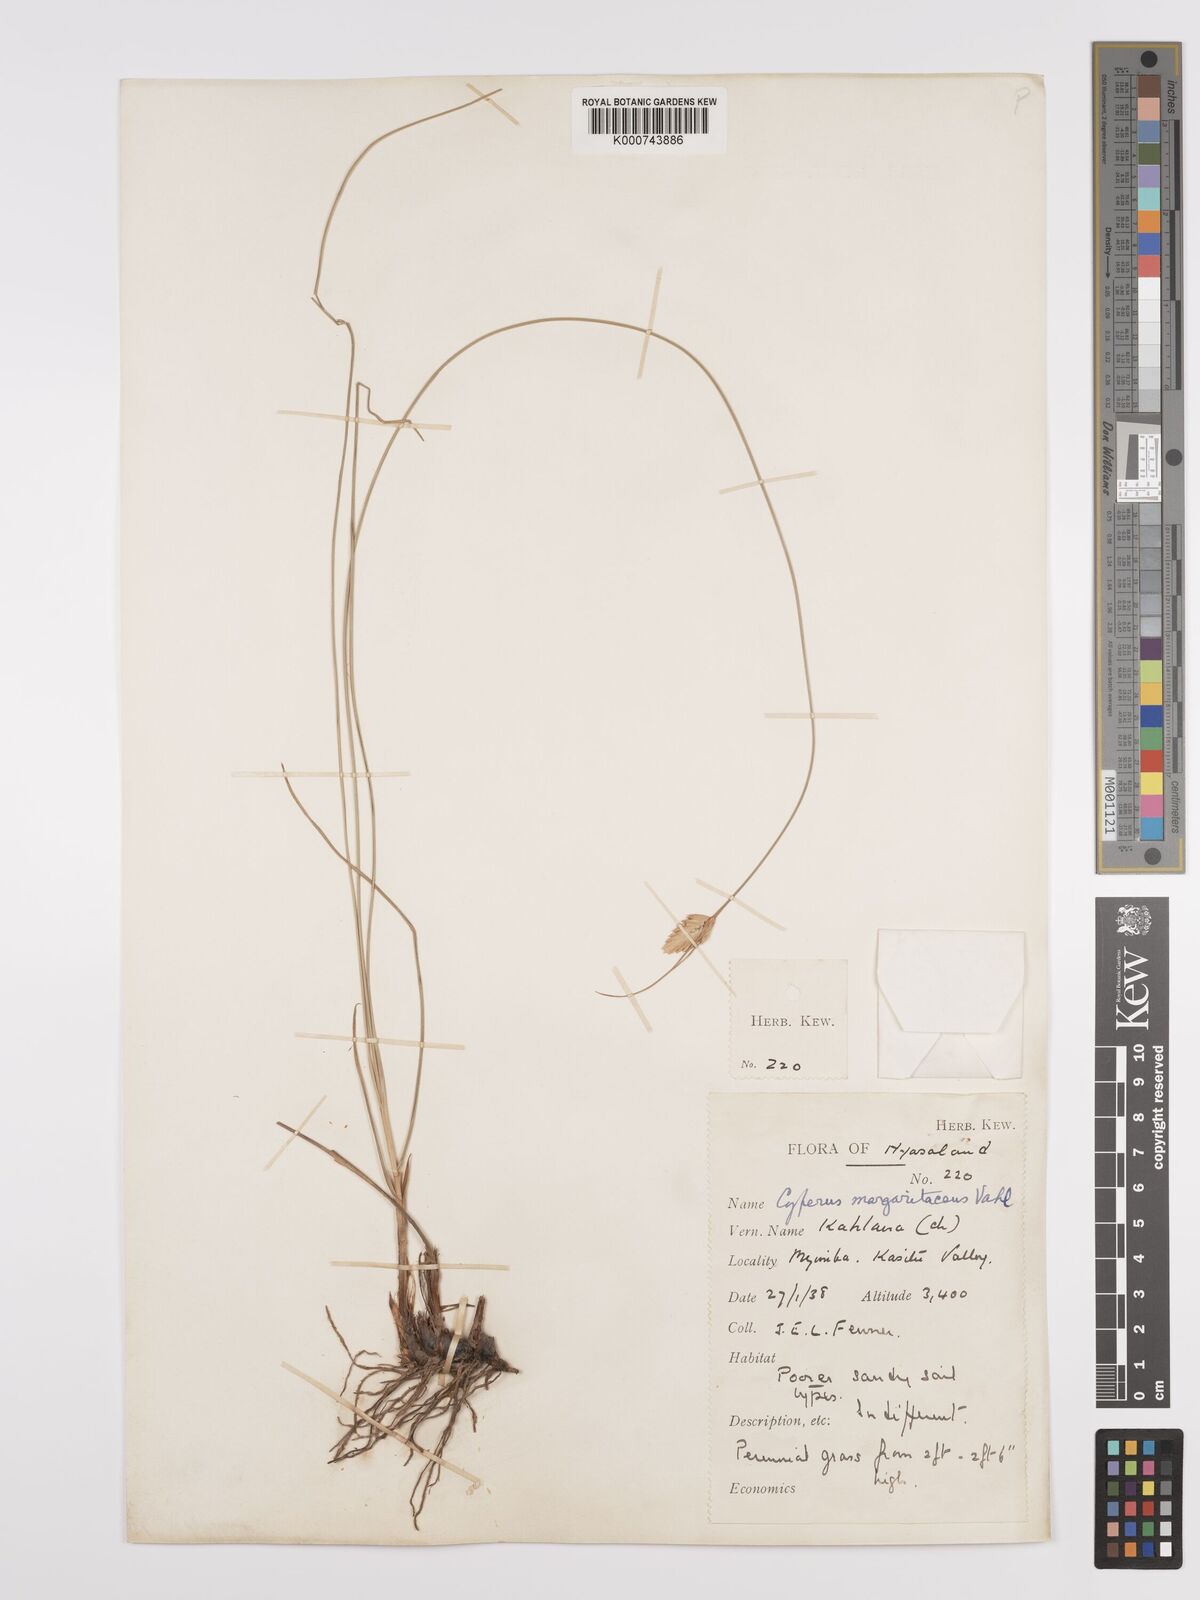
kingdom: Plantae
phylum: Tracheophyta
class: Liliopsida
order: Poales
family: Cyperaceae
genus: Cyperus
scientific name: Cyperus margaritaceus
